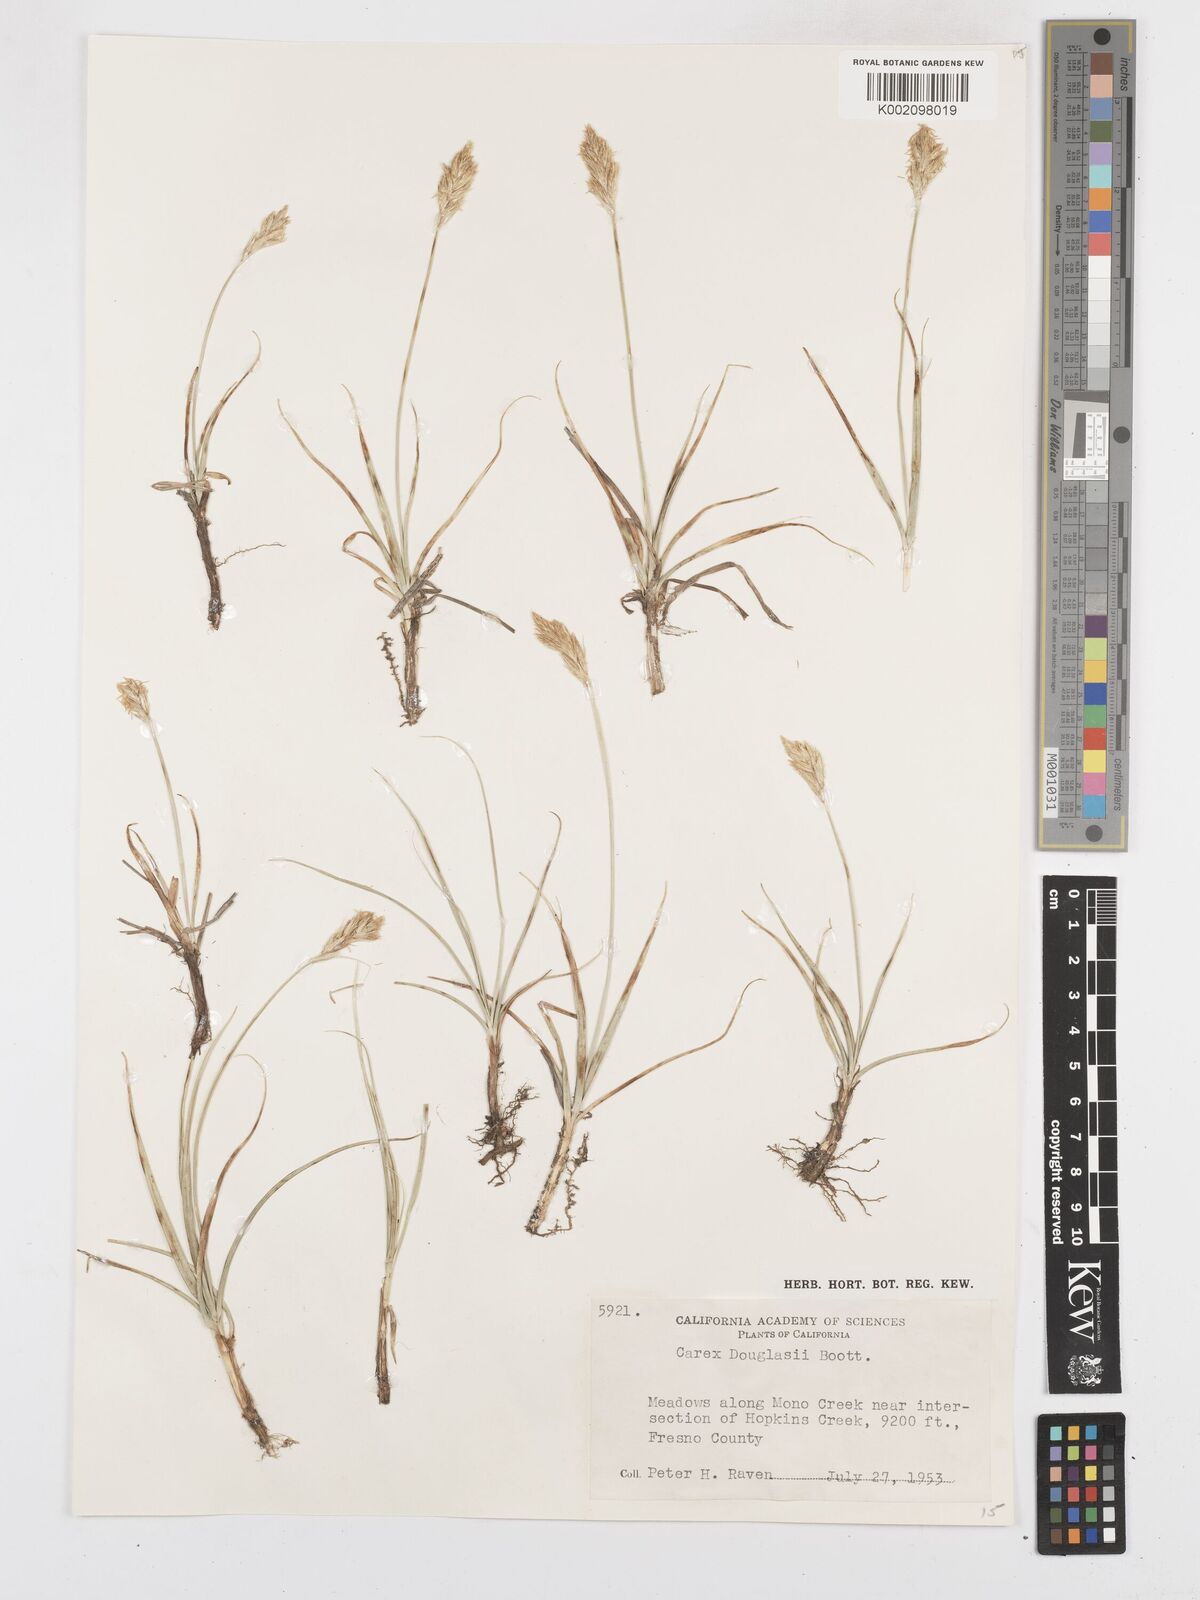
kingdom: Plantae
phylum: Tracheophyta
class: Liliopsida
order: Poales
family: Cyperaceae
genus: Carex
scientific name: Carex douglasii
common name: Douglas' sedge
